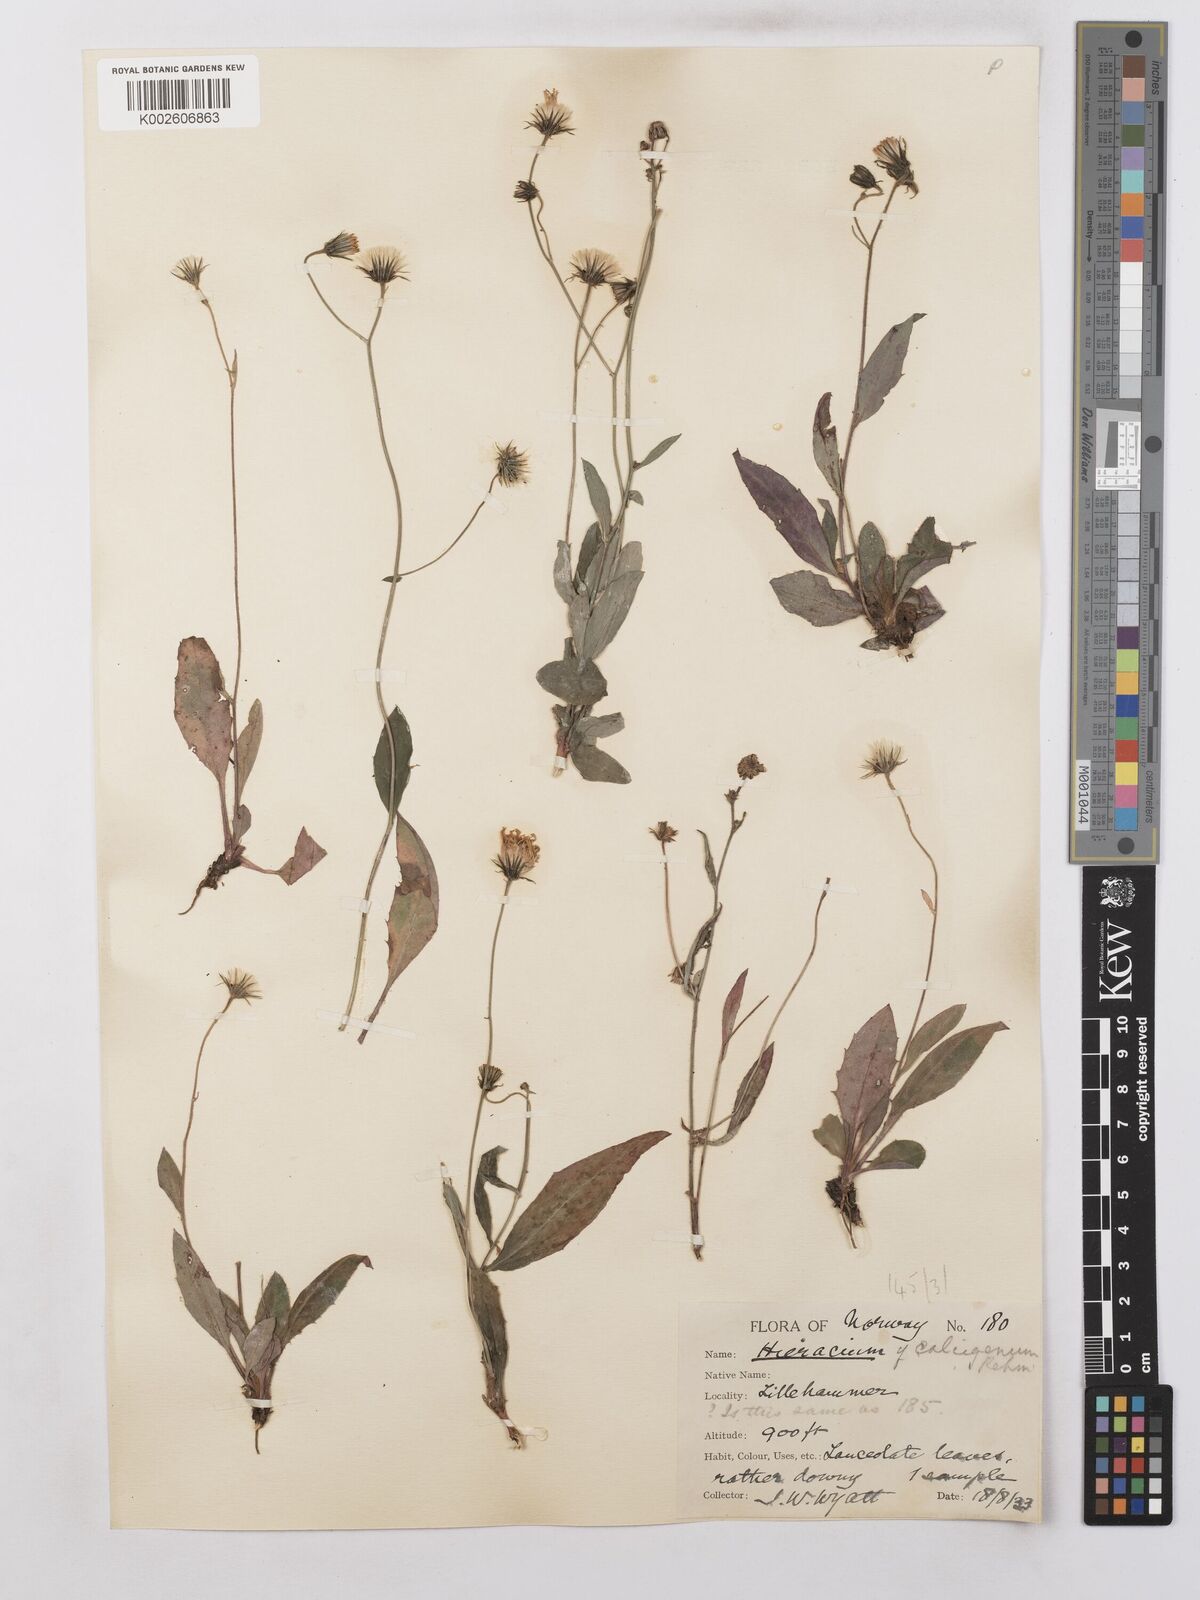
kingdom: Plantae
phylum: Tracheophyta
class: Magnoliopsida
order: Asterales
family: Asteraceae
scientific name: Asteraceae
